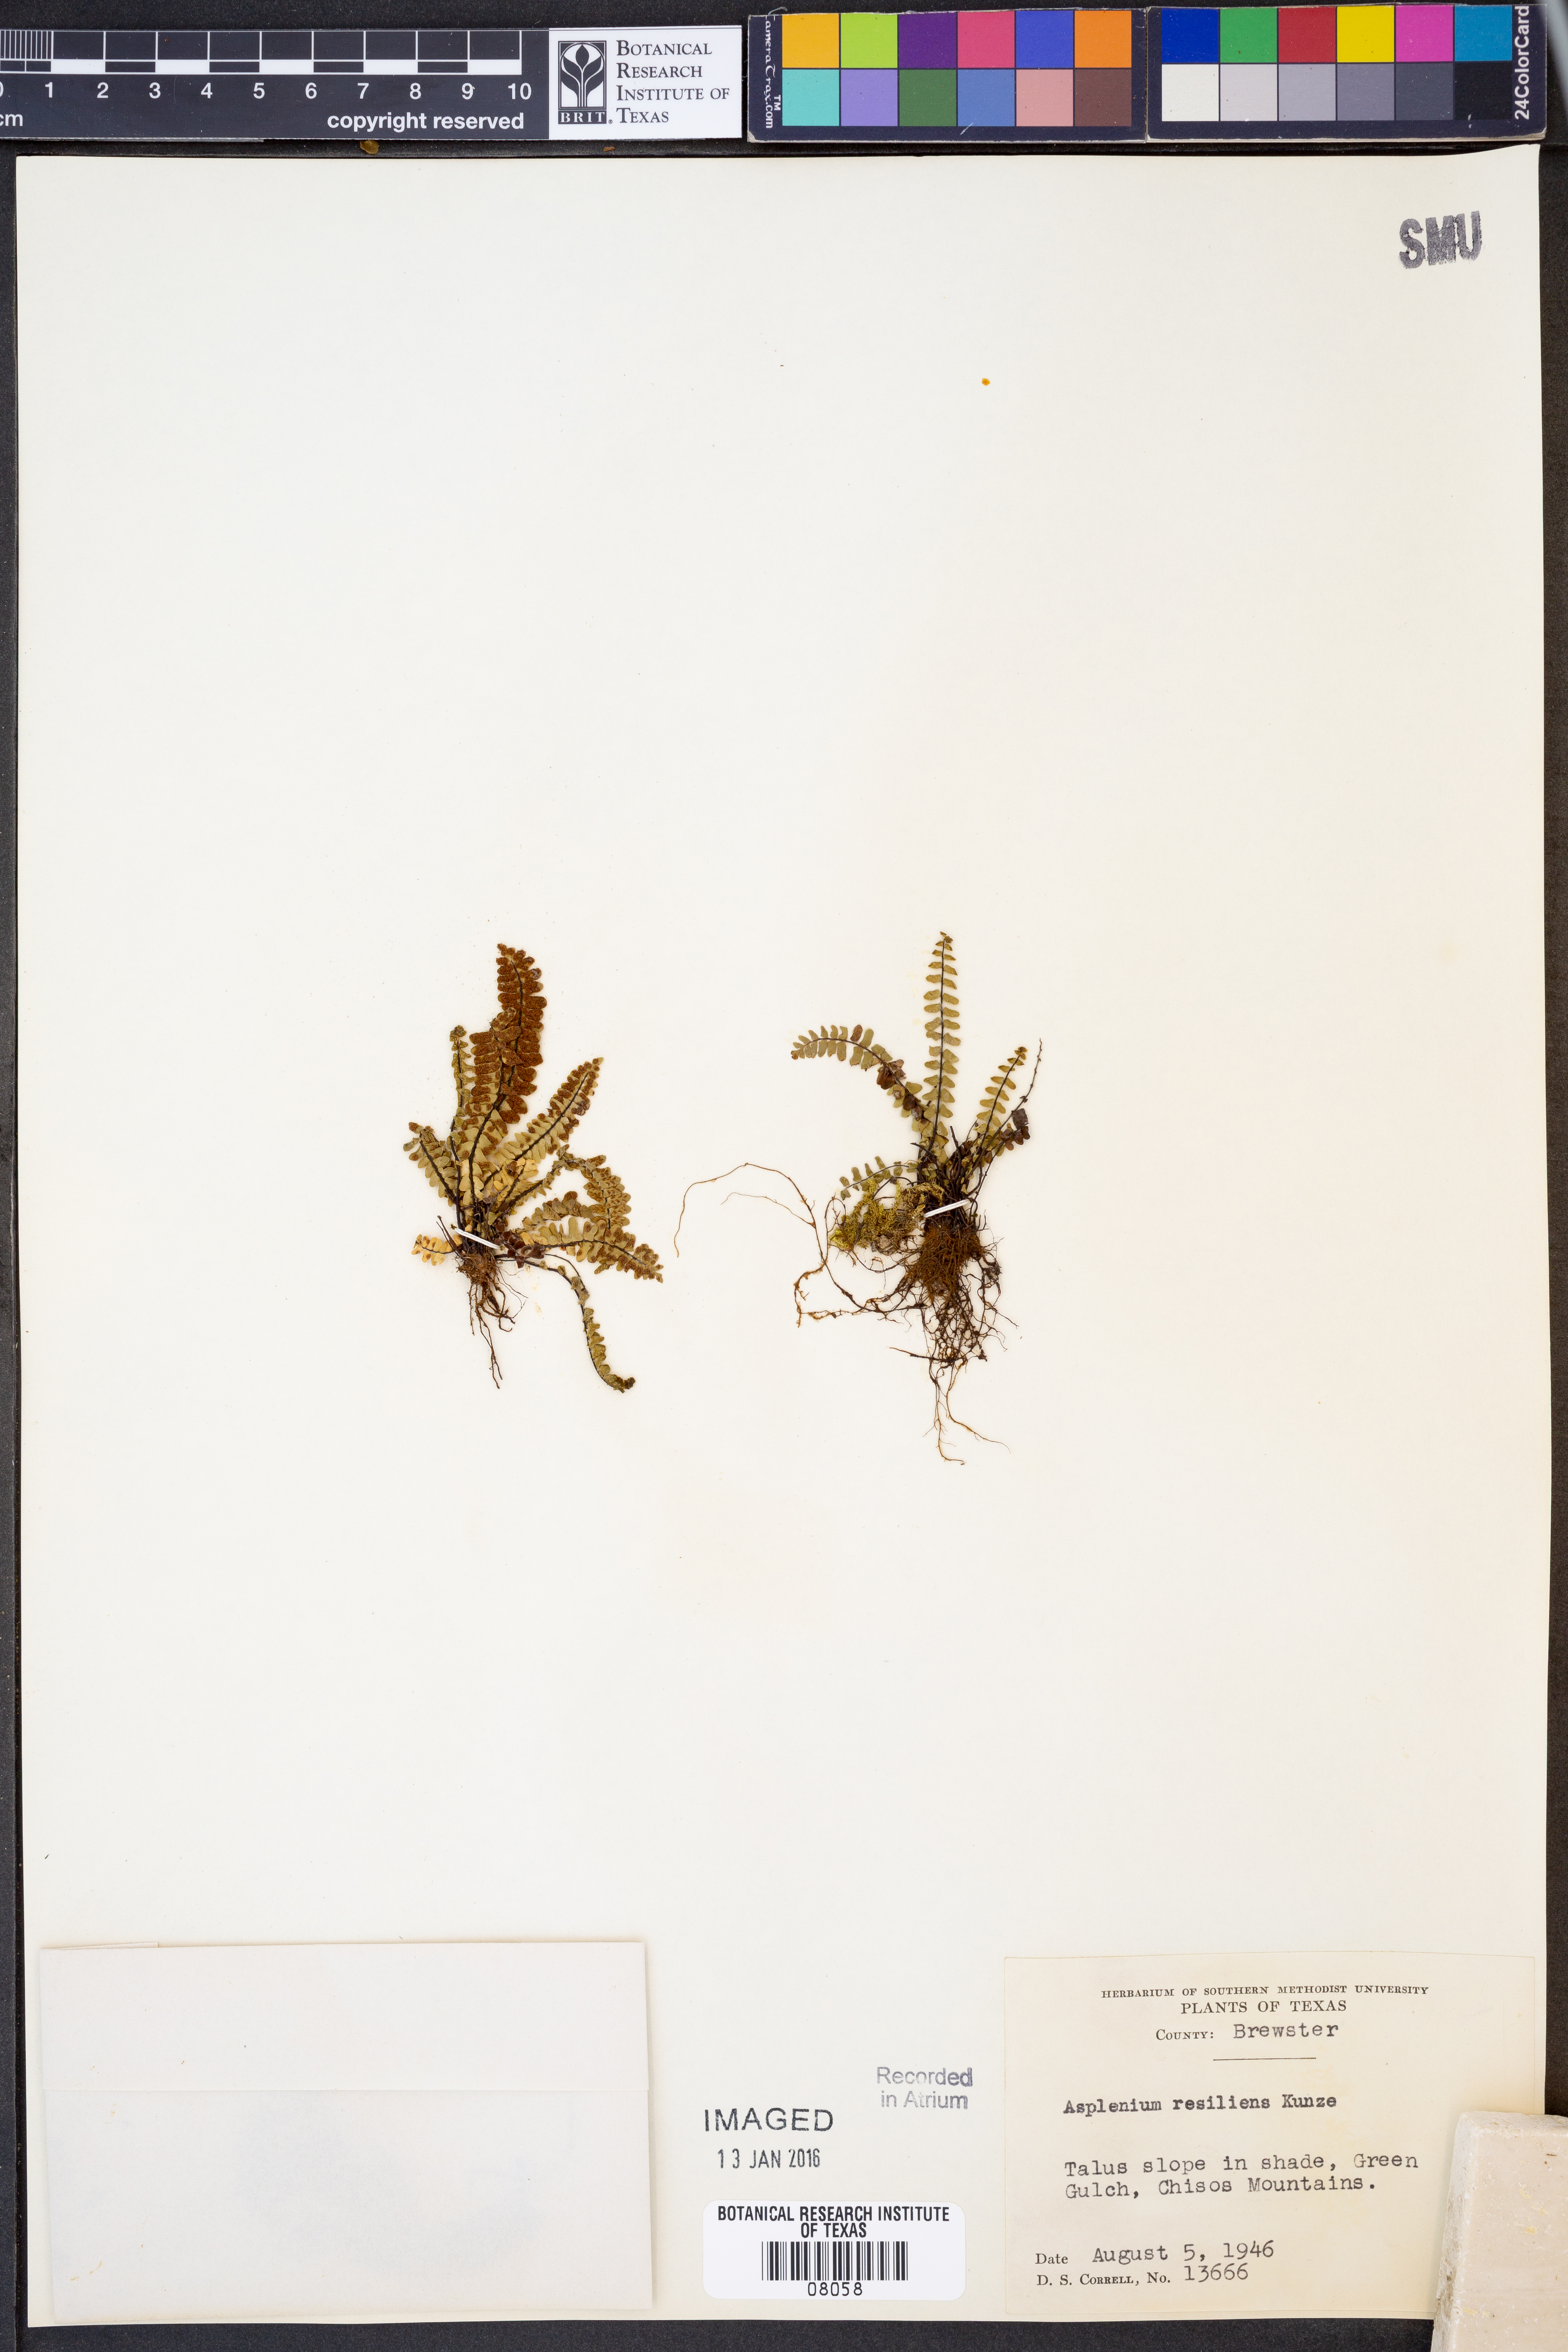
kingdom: Plantae
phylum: Tracheophyta
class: Polypodiopsida
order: Polypodiales
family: Aspleniaceae
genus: Asplenium
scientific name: Asplenium resiliens
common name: Blackstem spleenwort
